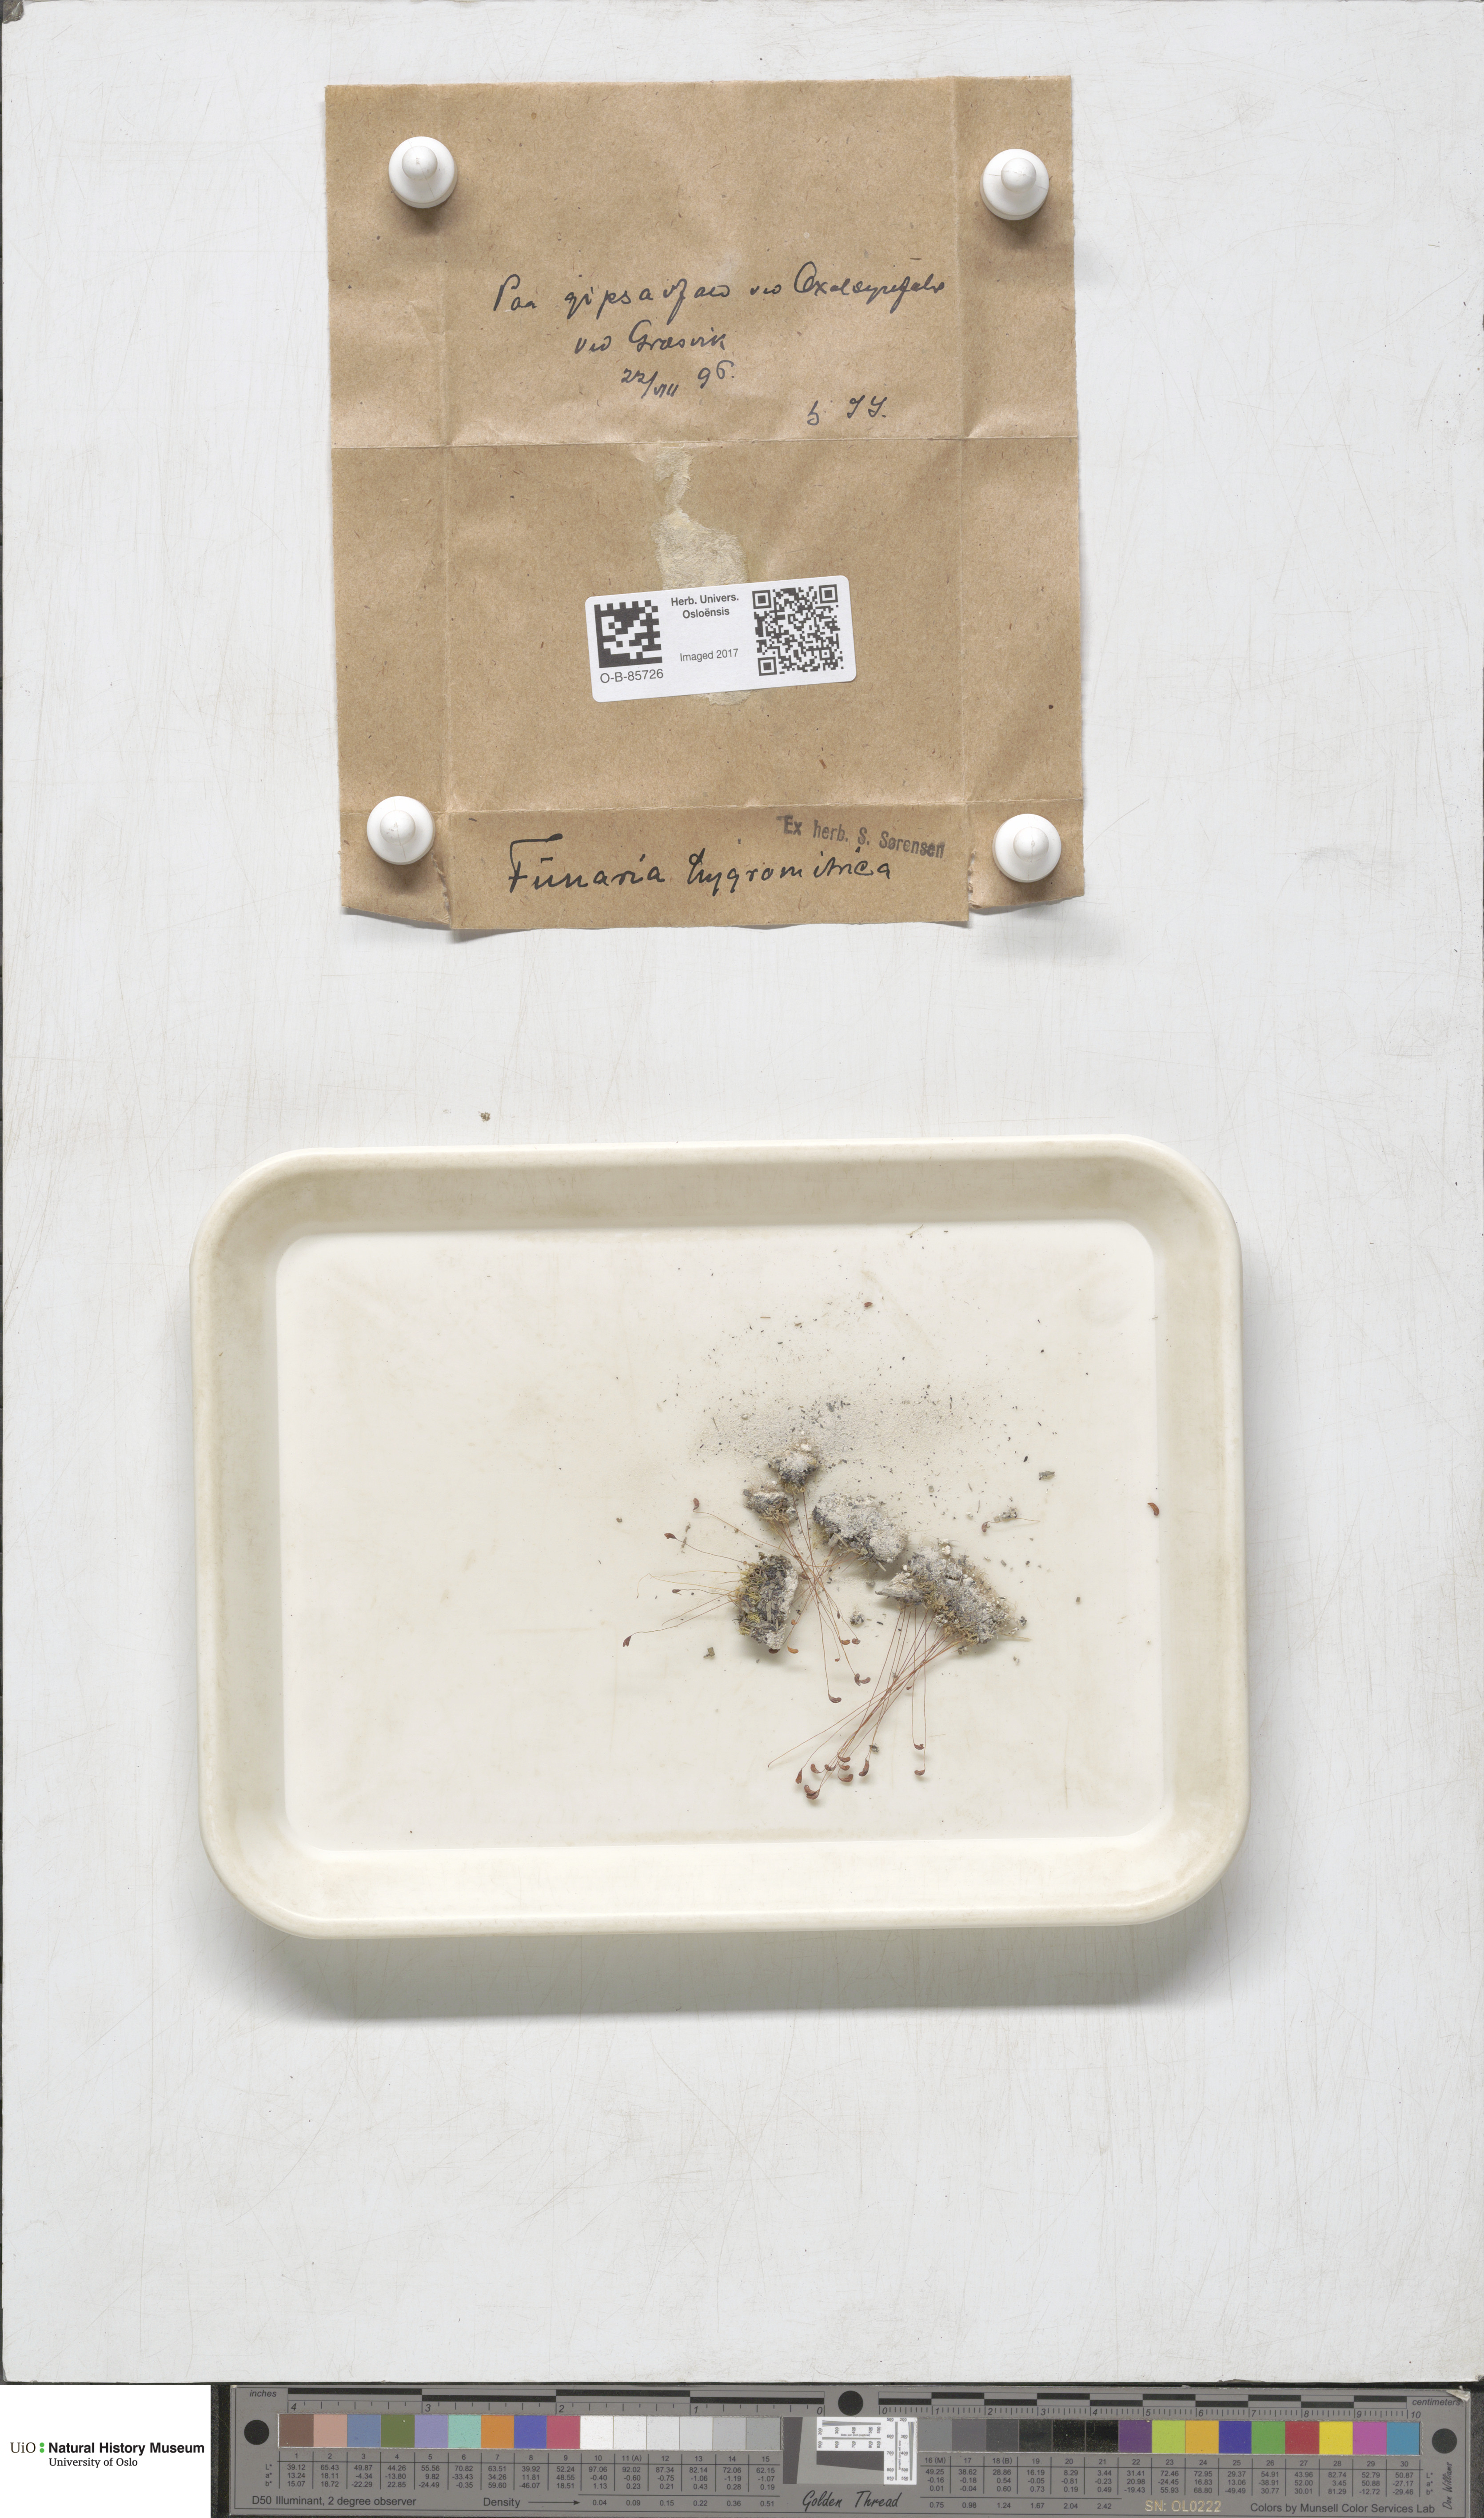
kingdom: Plantae
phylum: Bryophyta
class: Bryopsida
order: Funariales
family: Funariaceae
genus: Funaria
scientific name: Funaria hygrometrica
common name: Common cord moss
